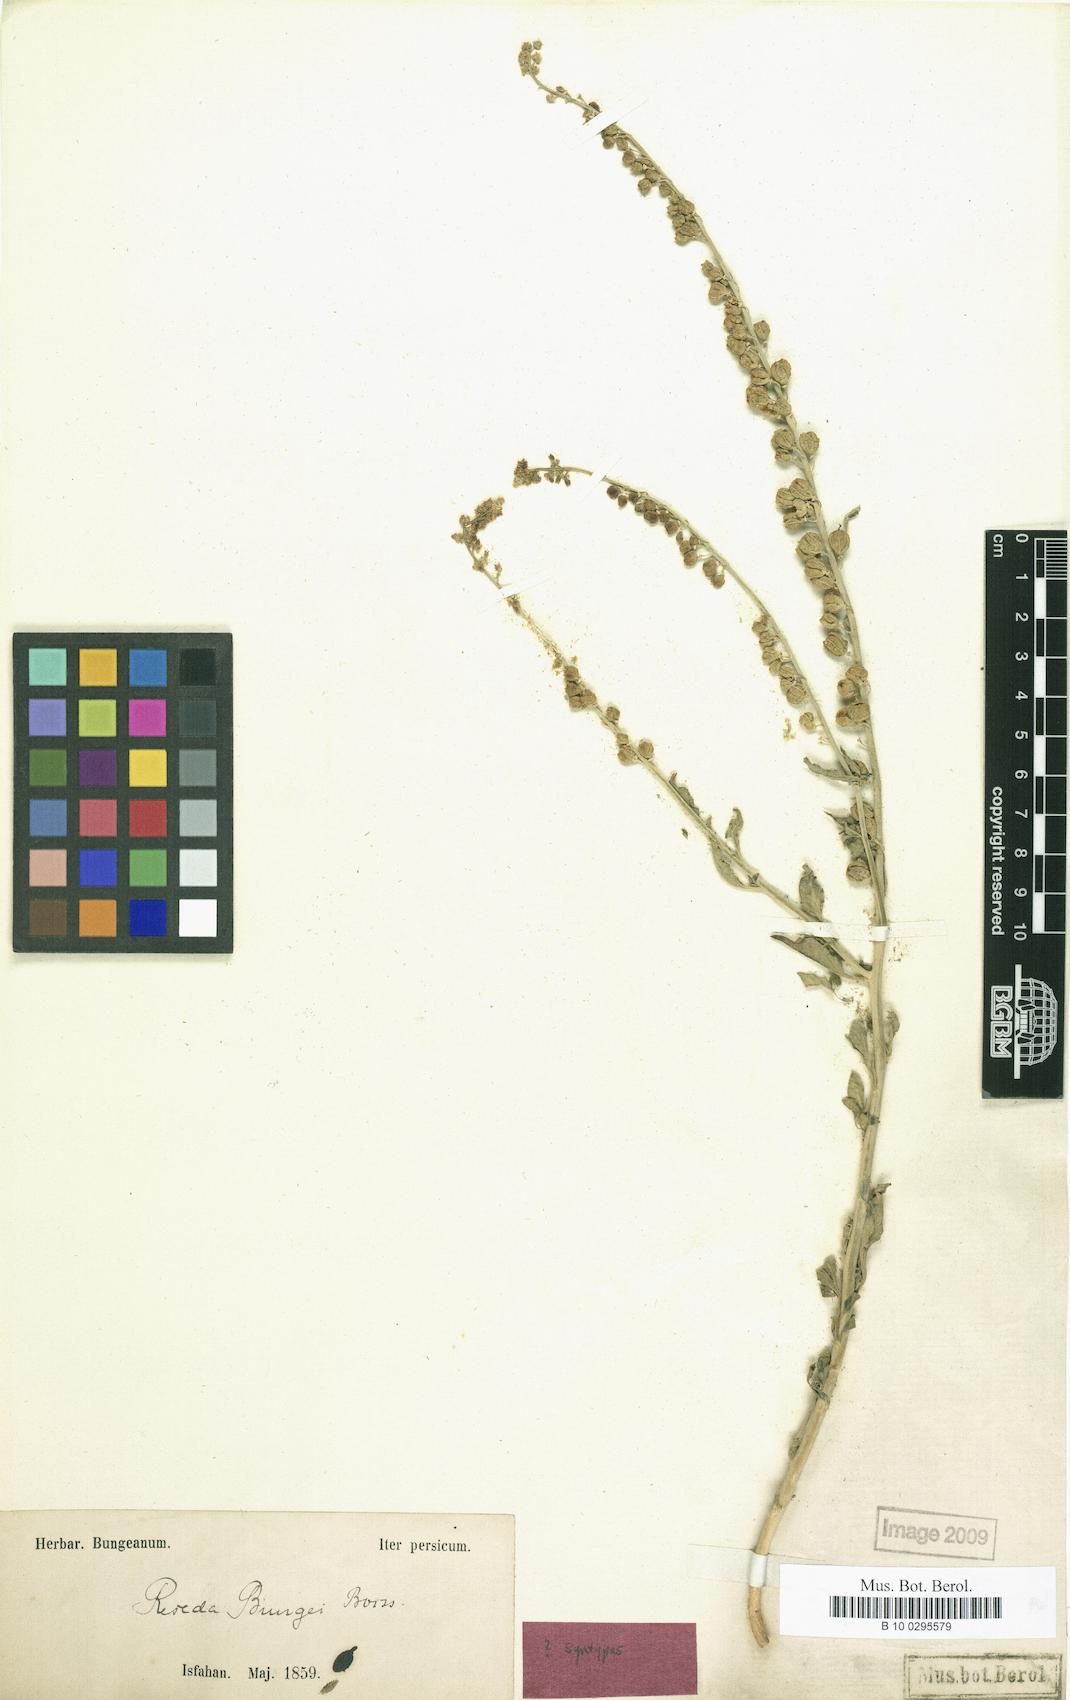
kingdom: Plantae
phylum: Tracheophyta
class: Magnoliopsida
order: Brassicales
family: Resedaceae
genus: Reseda
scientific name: Reseda bungei
